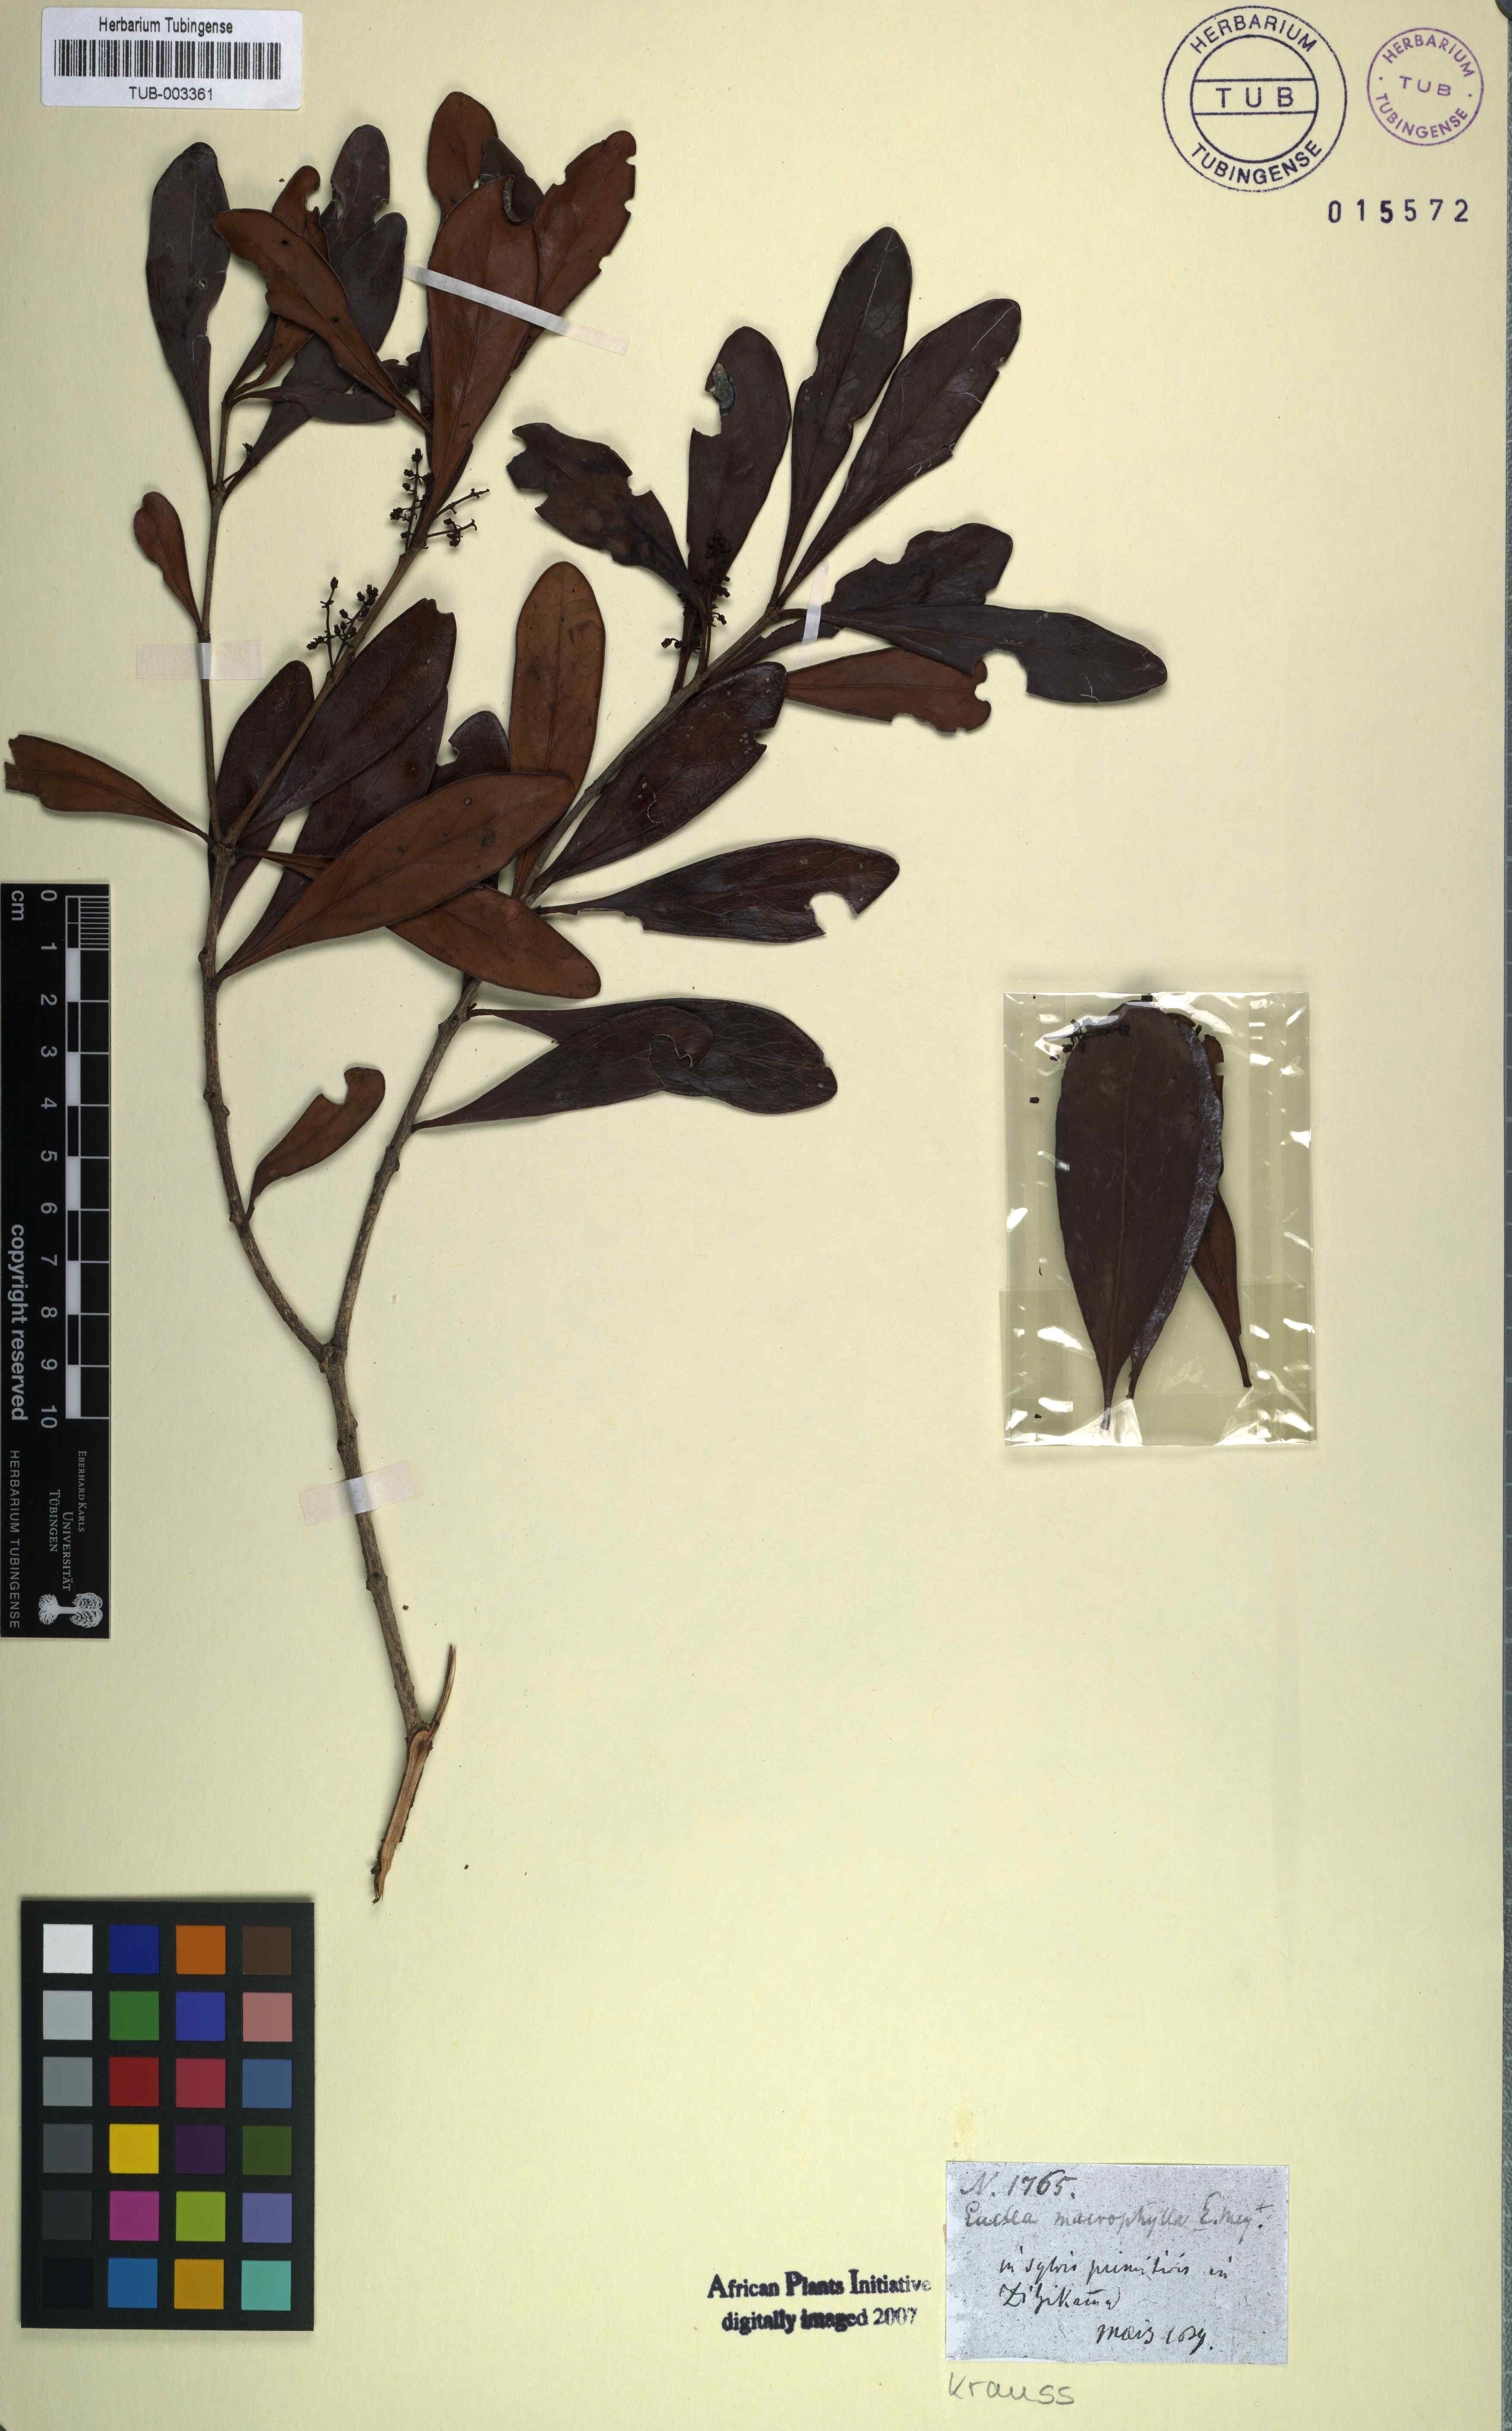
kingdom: Plantae
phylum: Tracheophyta
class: Magnoliopsida
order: Ericales
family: Ebenaceae
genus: Euclea
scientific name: Euclea natalensis
